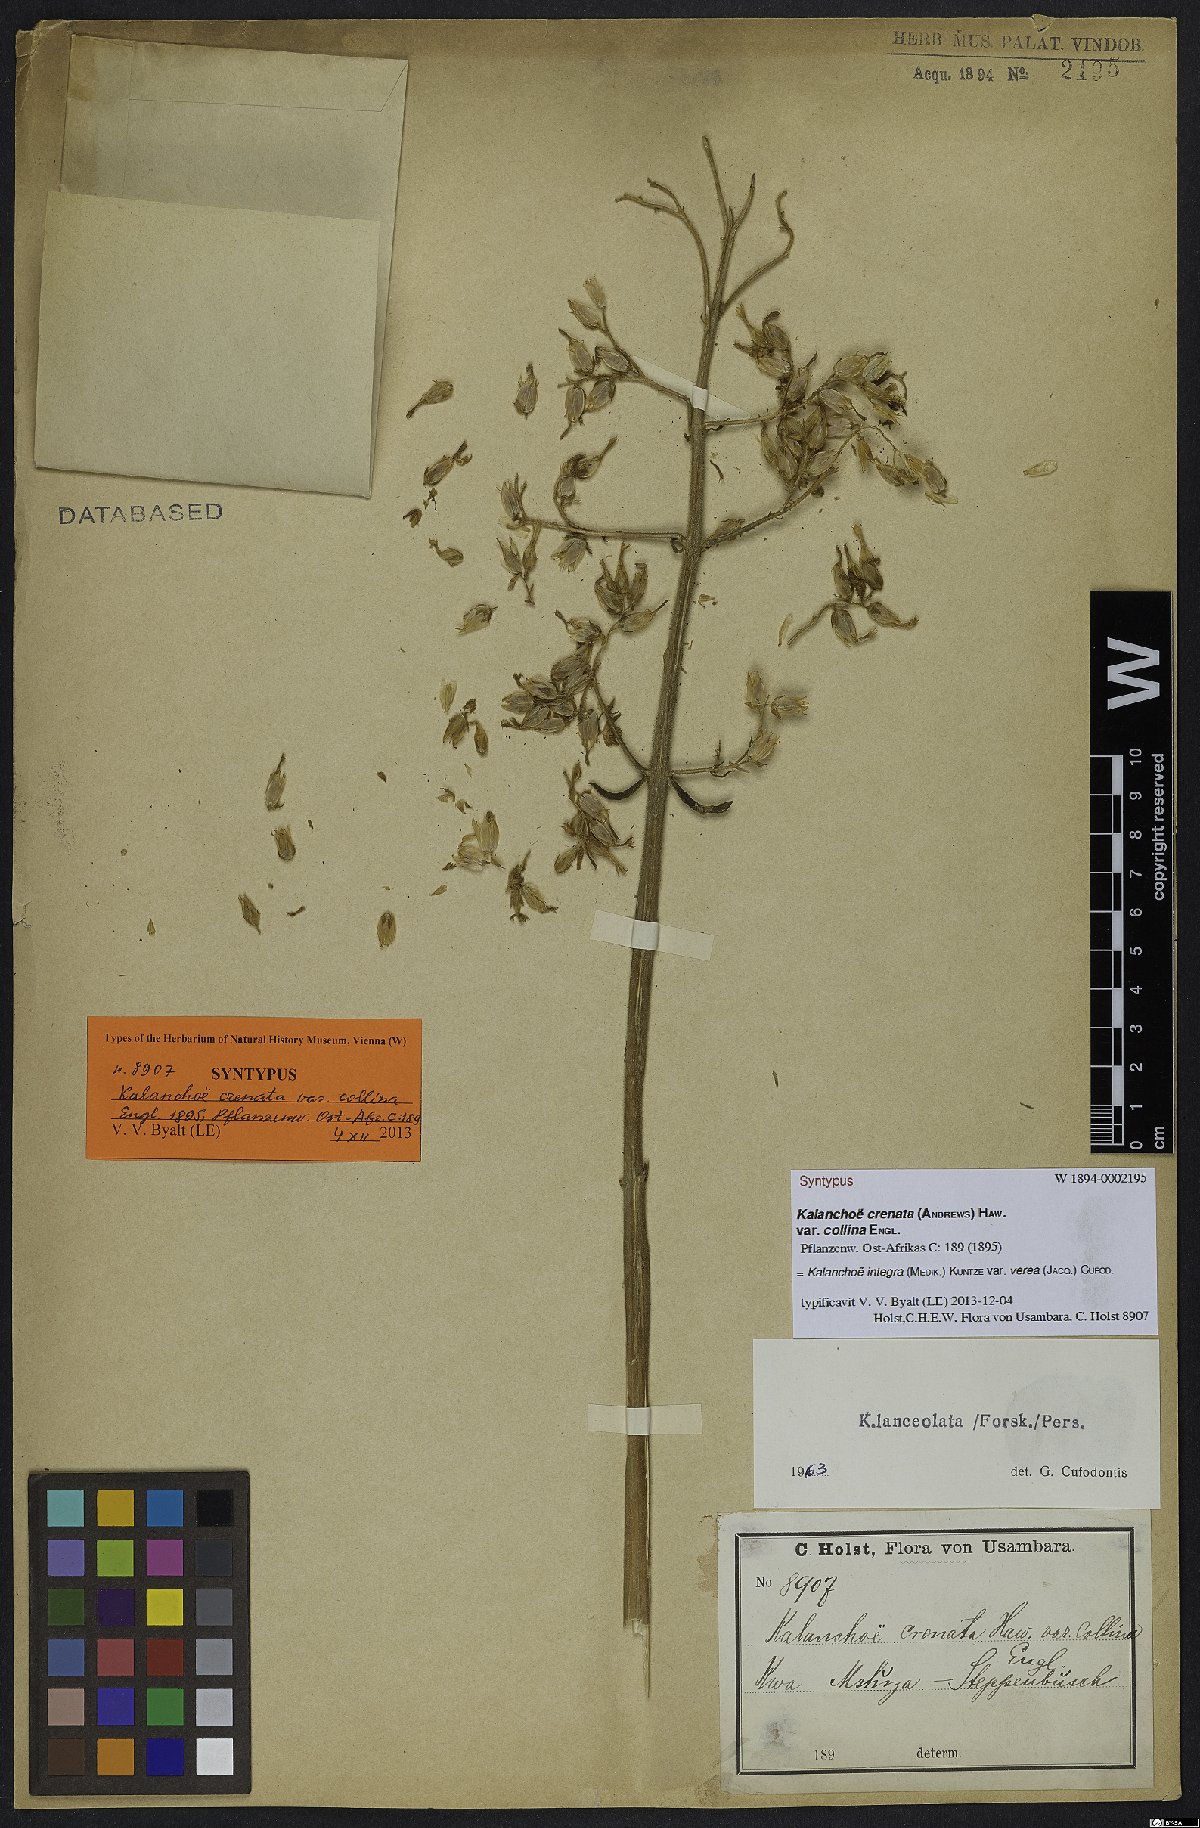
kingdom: Plantae
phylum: Tracheophyta
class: Magnoliopsida
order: Saxifragales
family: Crassulaceae
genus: Kalanchoe
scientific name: Kalanchoe crenata
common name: Neverdie
